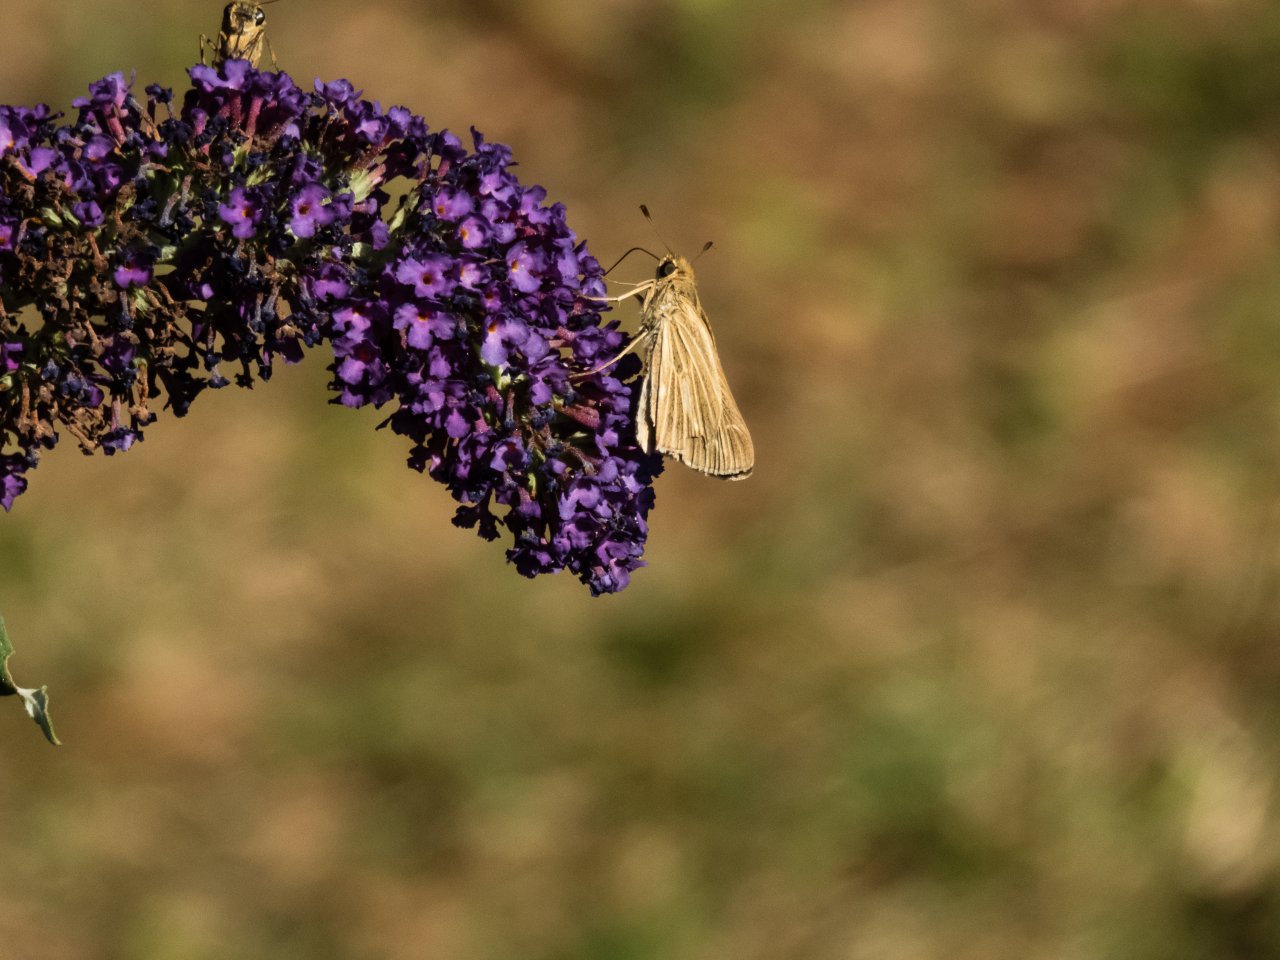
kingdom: Animalia
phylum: Arthropoda
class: Insecta
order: Lepidoptera
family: Hesperiidae
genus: Panoquina
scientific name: Panoquina panoquin
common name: Salt Marsh Skipper
